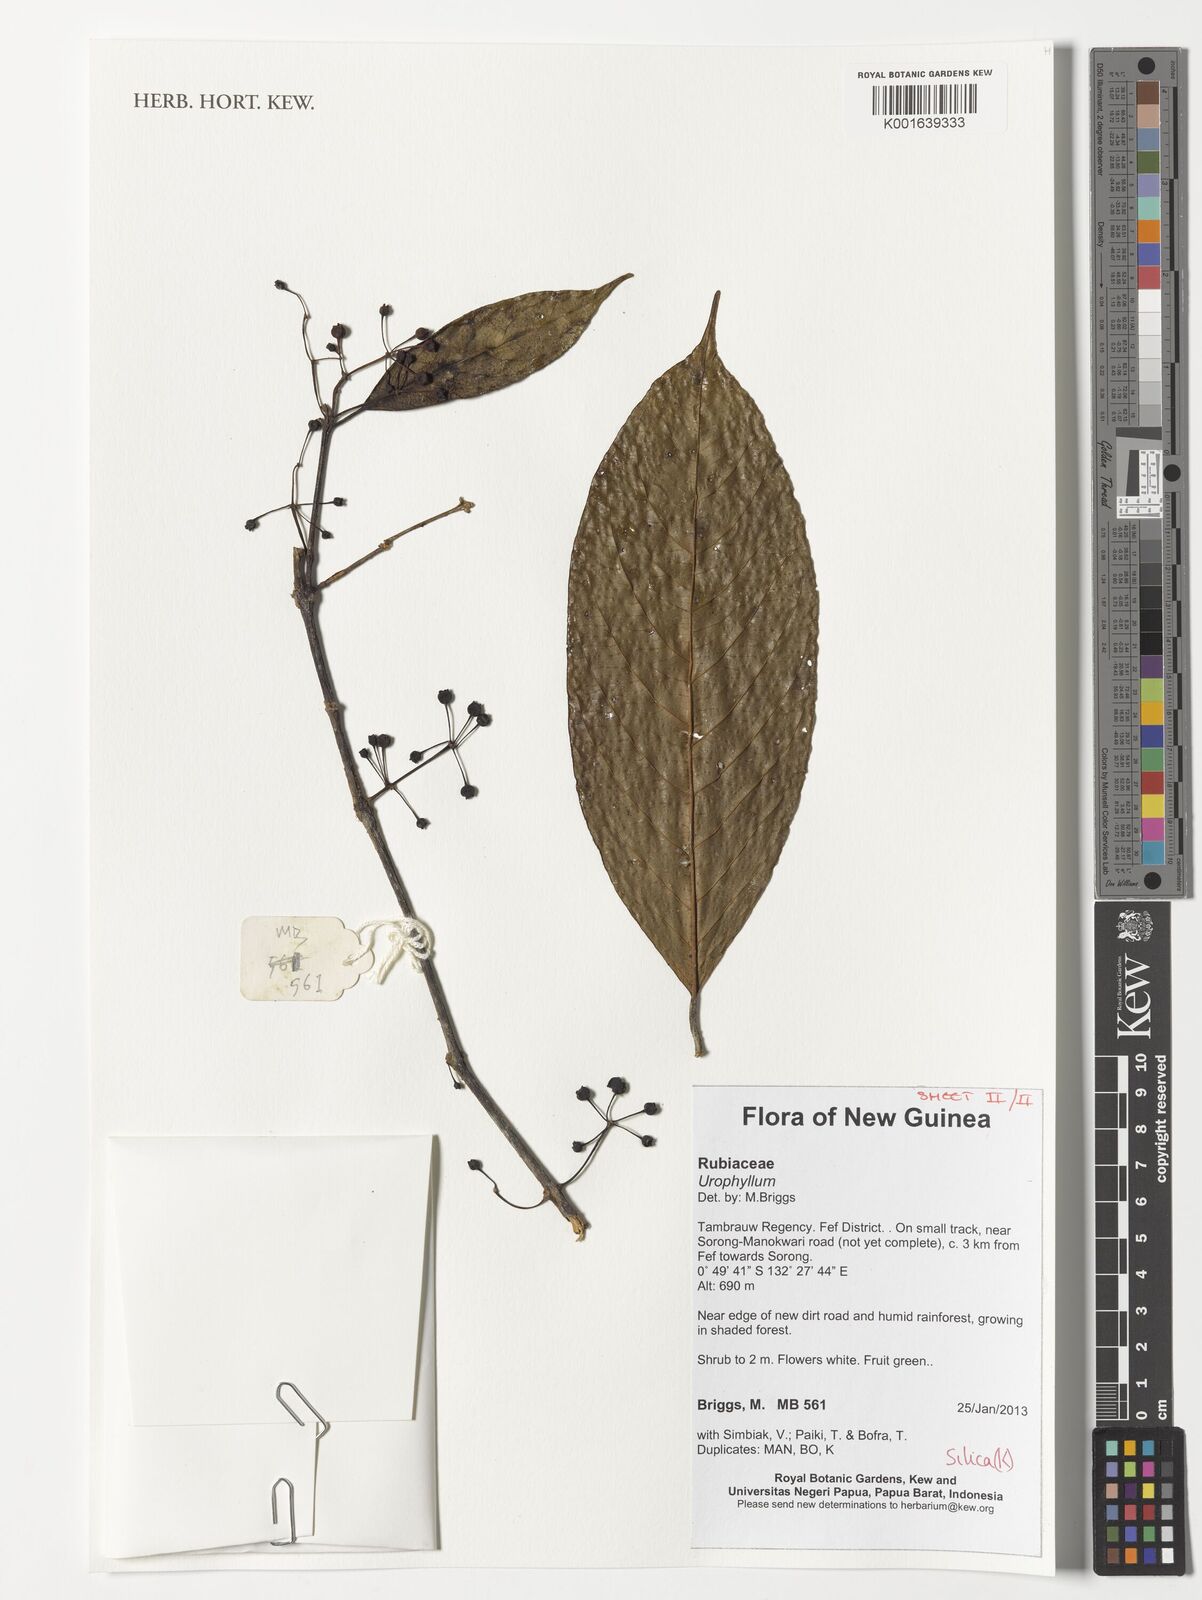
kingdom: Plantae
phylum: Tracheophyta
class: Magnoliopsida
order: Gentianales
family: Rubiaceae
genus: Urophyllum
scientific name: Urophyllum
